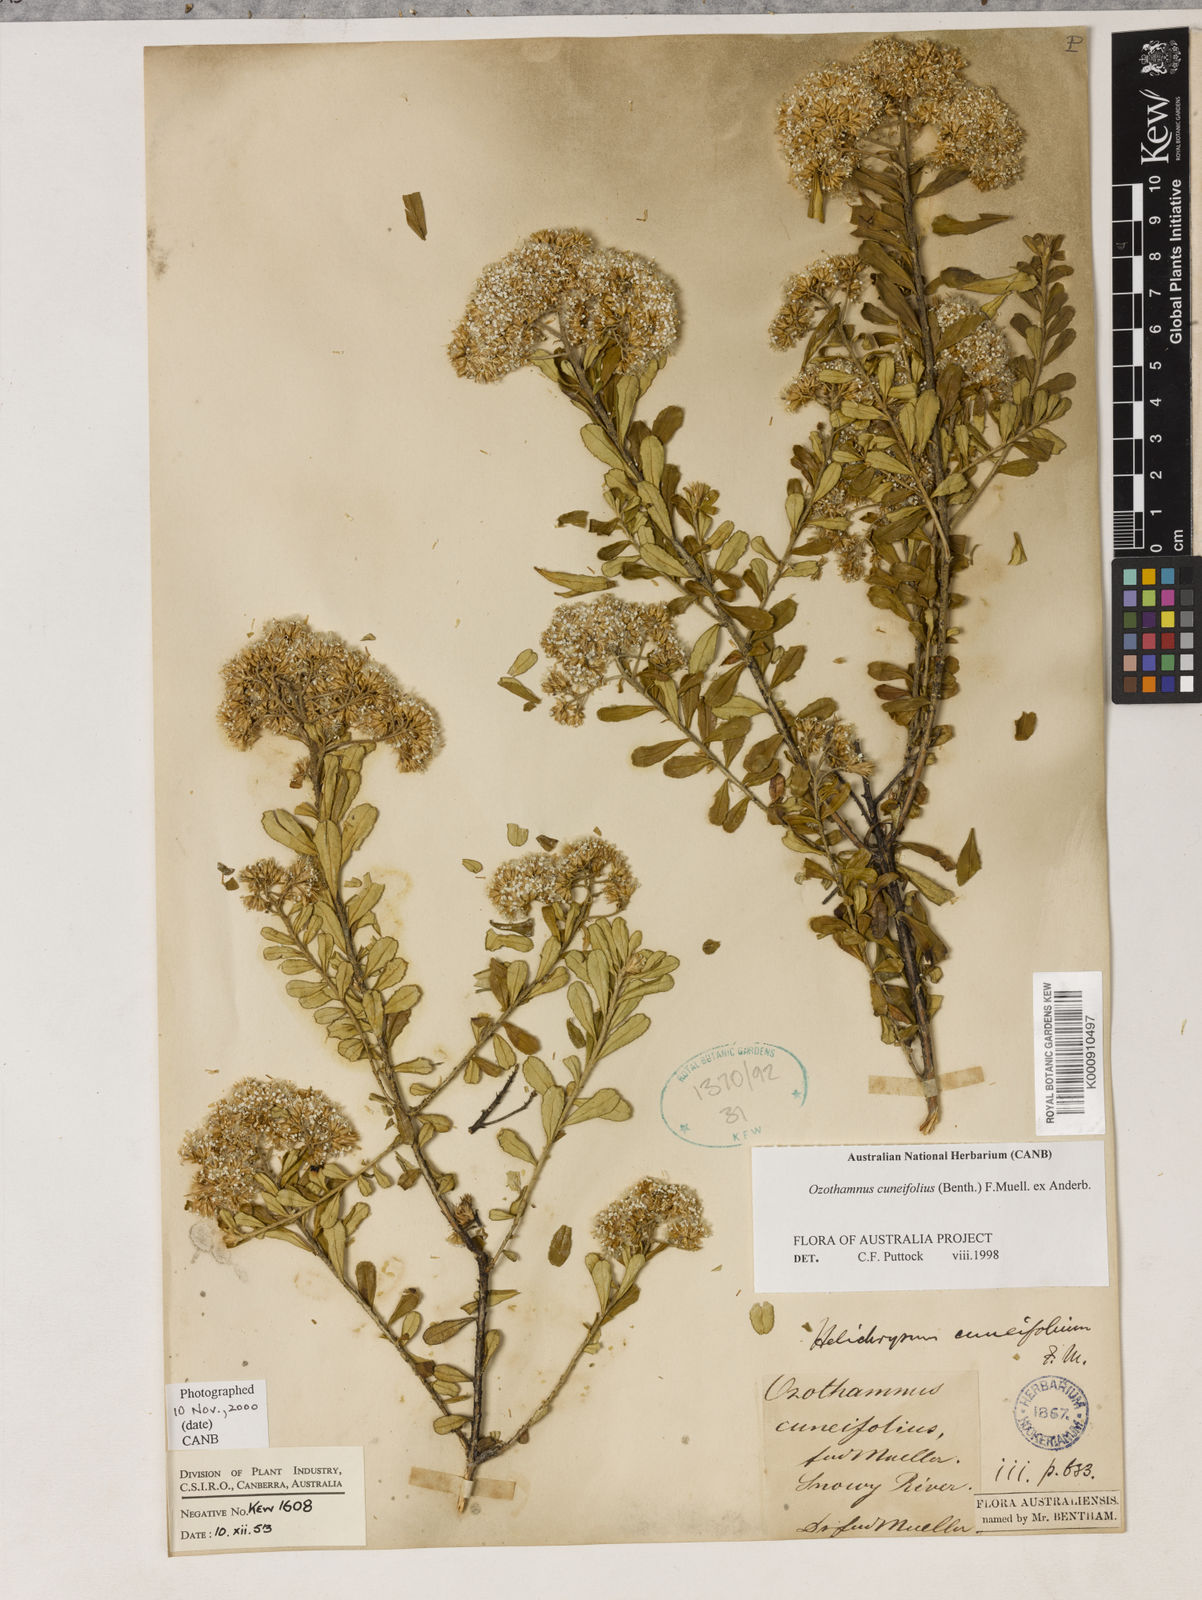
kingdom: Plantae
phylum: Tracheophyta
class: Magnoliopsida
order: Asterales
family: Asteraceae
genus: Ozothamnus
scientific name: Ozothamnus cuneifolius
